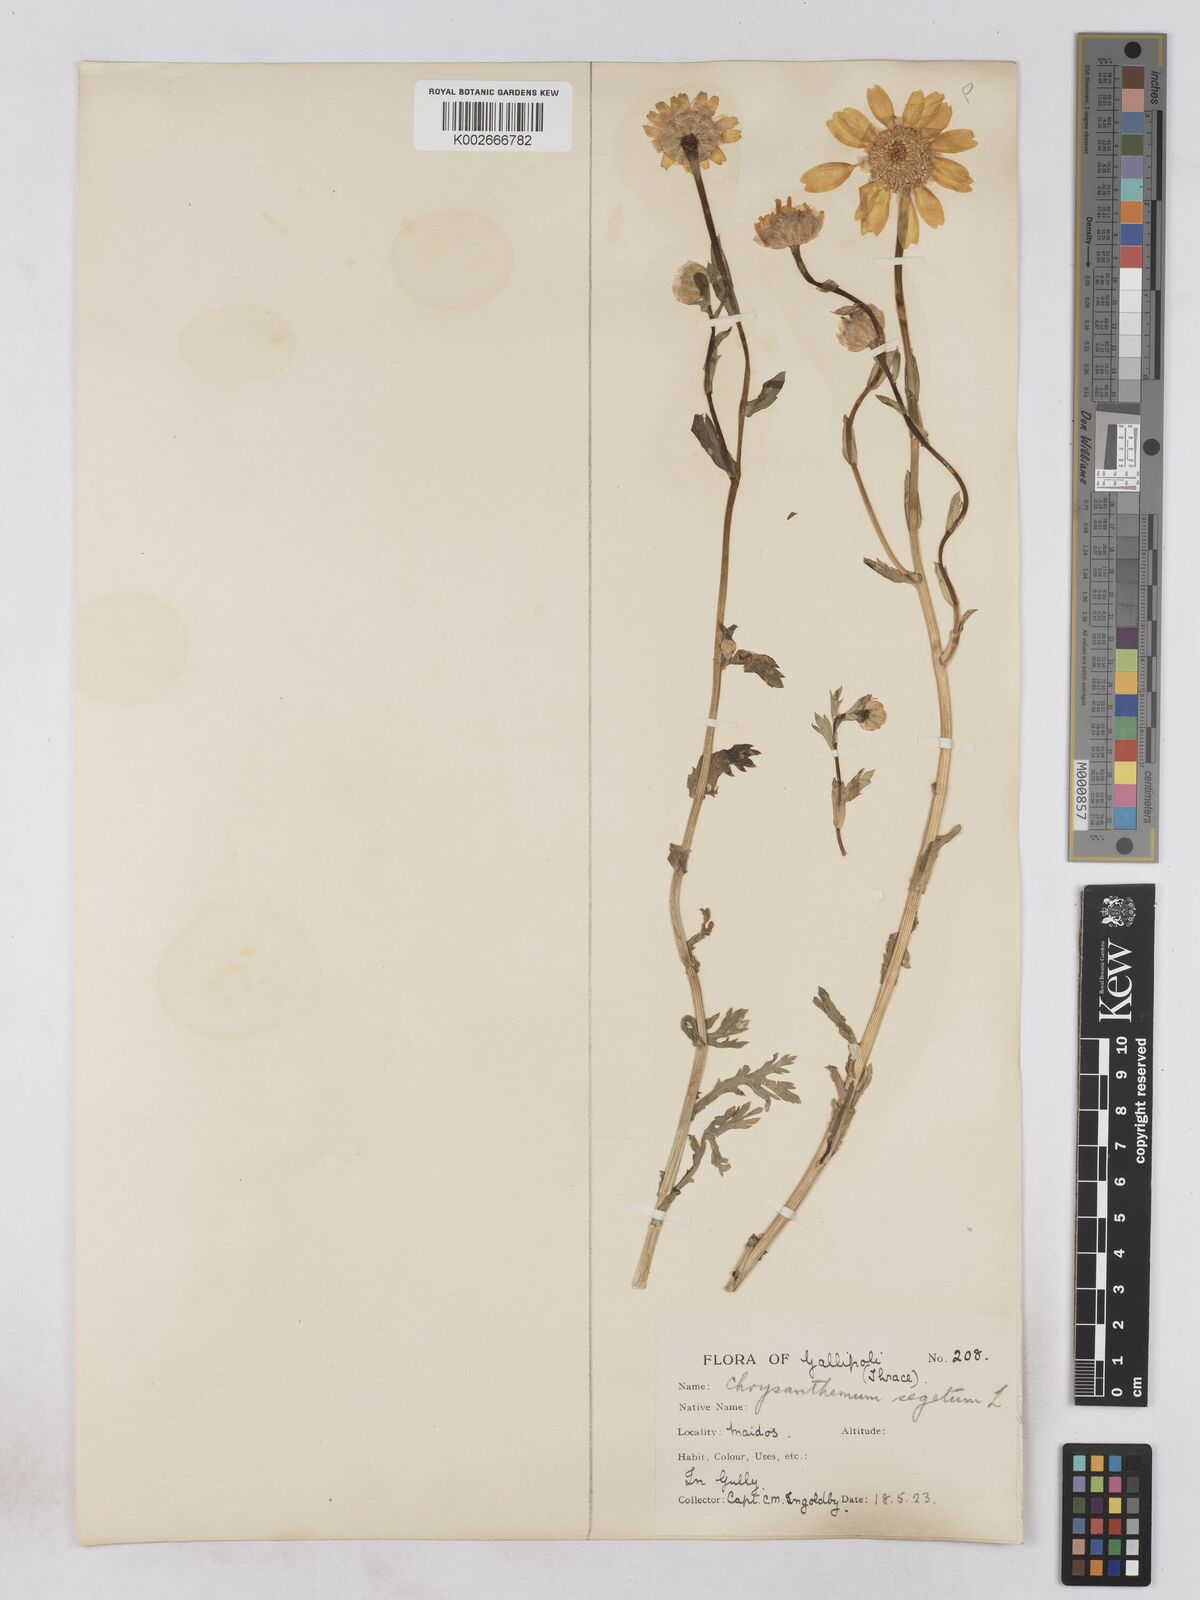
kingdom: Plantae
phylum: Tracheophyta
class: Magnoliopsida
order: Asterales
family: Asteraceae
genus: Glebionis
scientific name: Glebionis segetum
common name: Corndaisy
